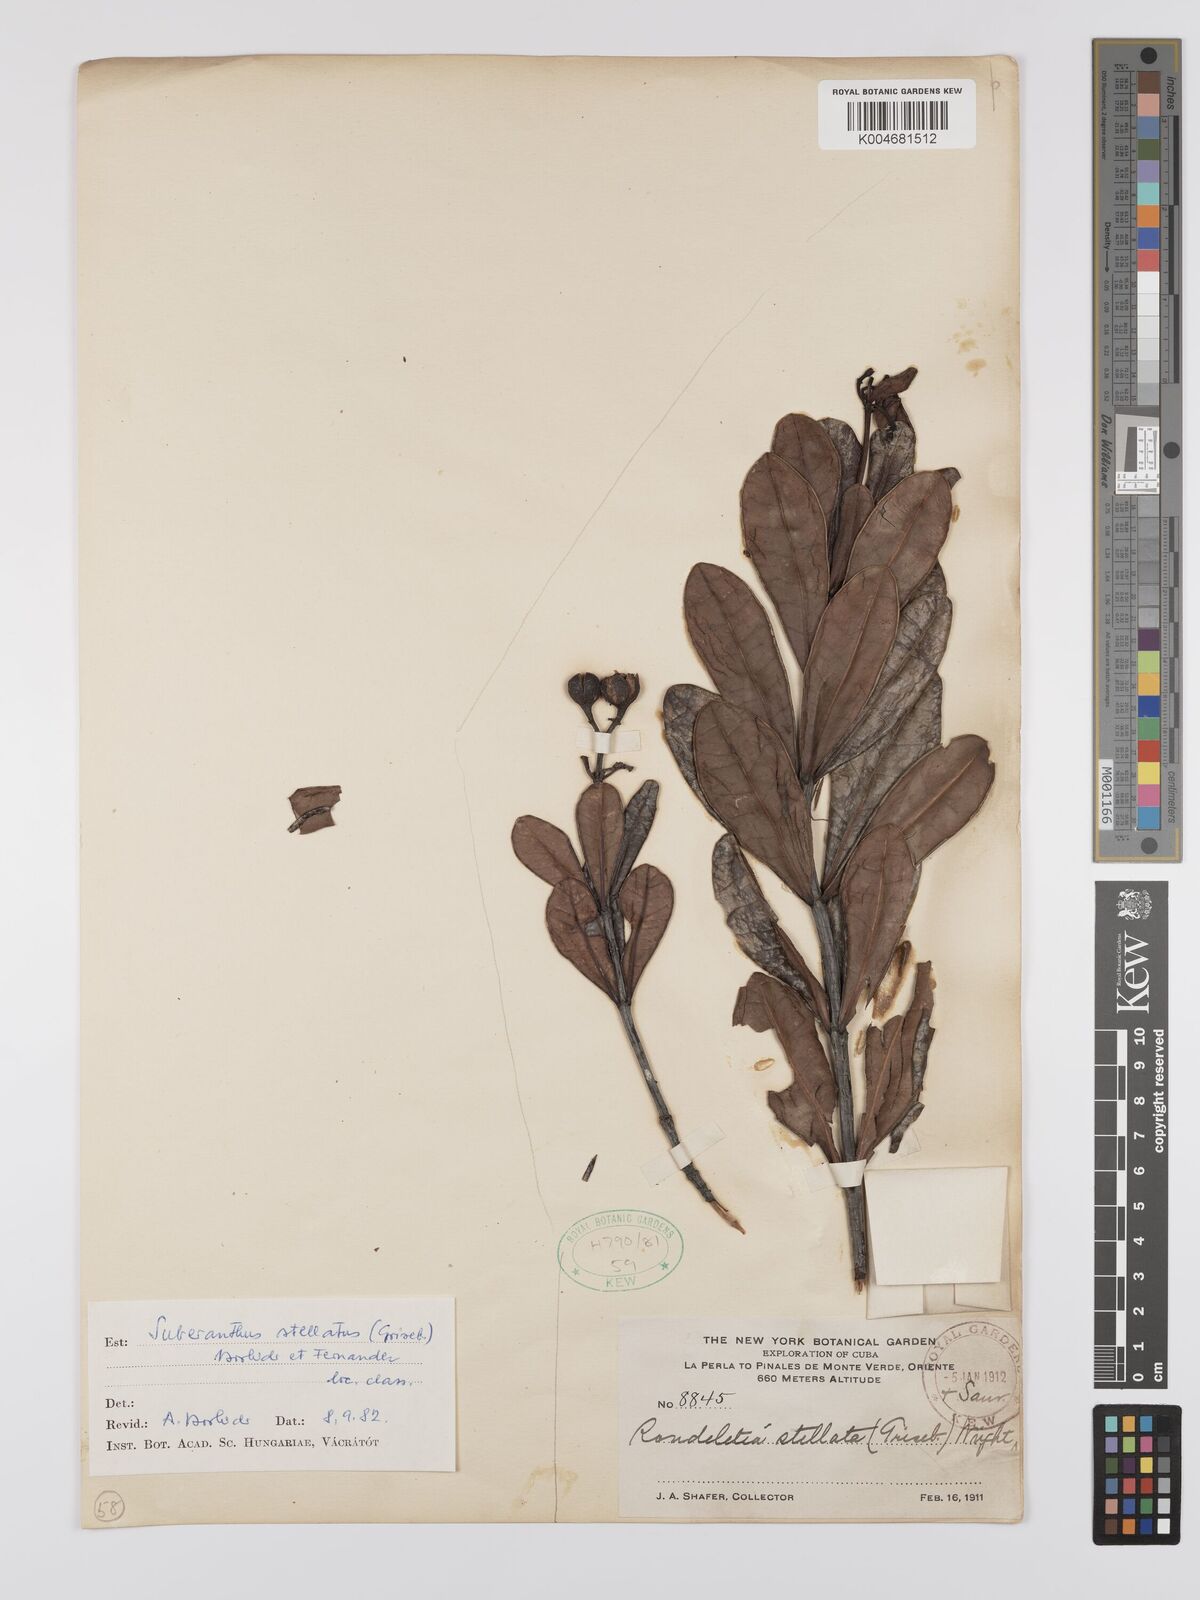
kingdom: Plantae
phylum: Tracheophyta
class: Magnoliopsida
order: Gentianales
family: Rubiaceae
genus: Suberanthus
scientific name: Suberanthus stellatus
